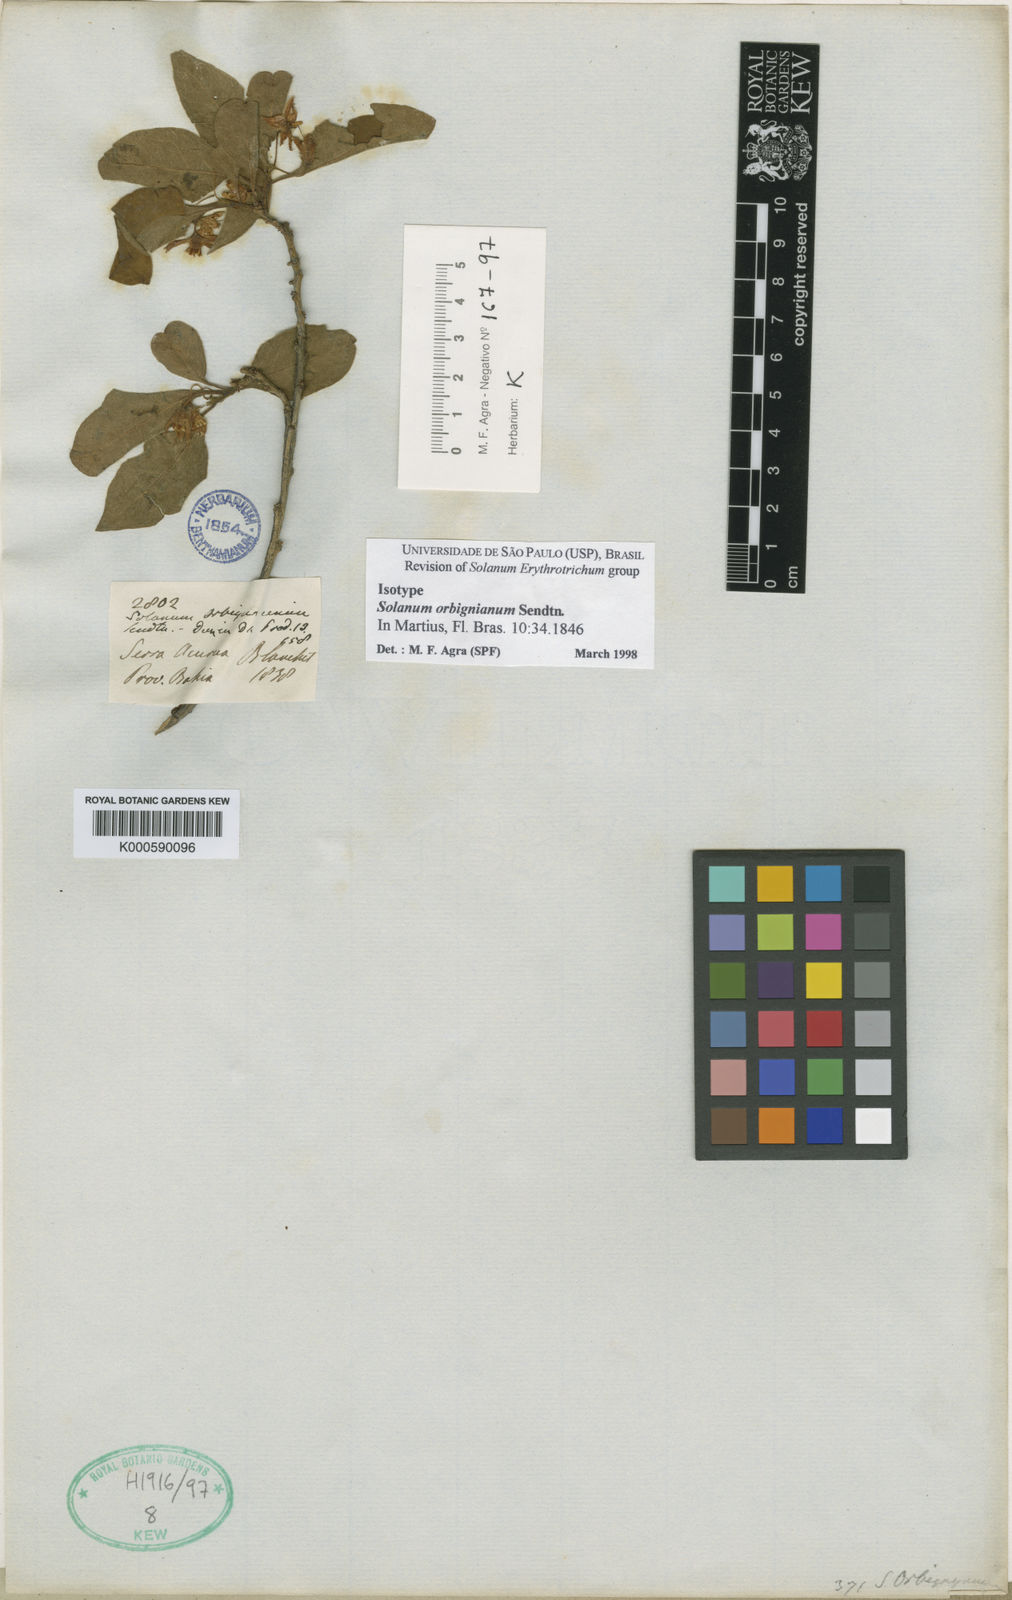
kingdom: Plantae
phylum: Tracheophyta
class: Magnoliopsida
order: Solanales
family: Solanaceae
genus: Solanum
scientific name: Solanum orbignianum
